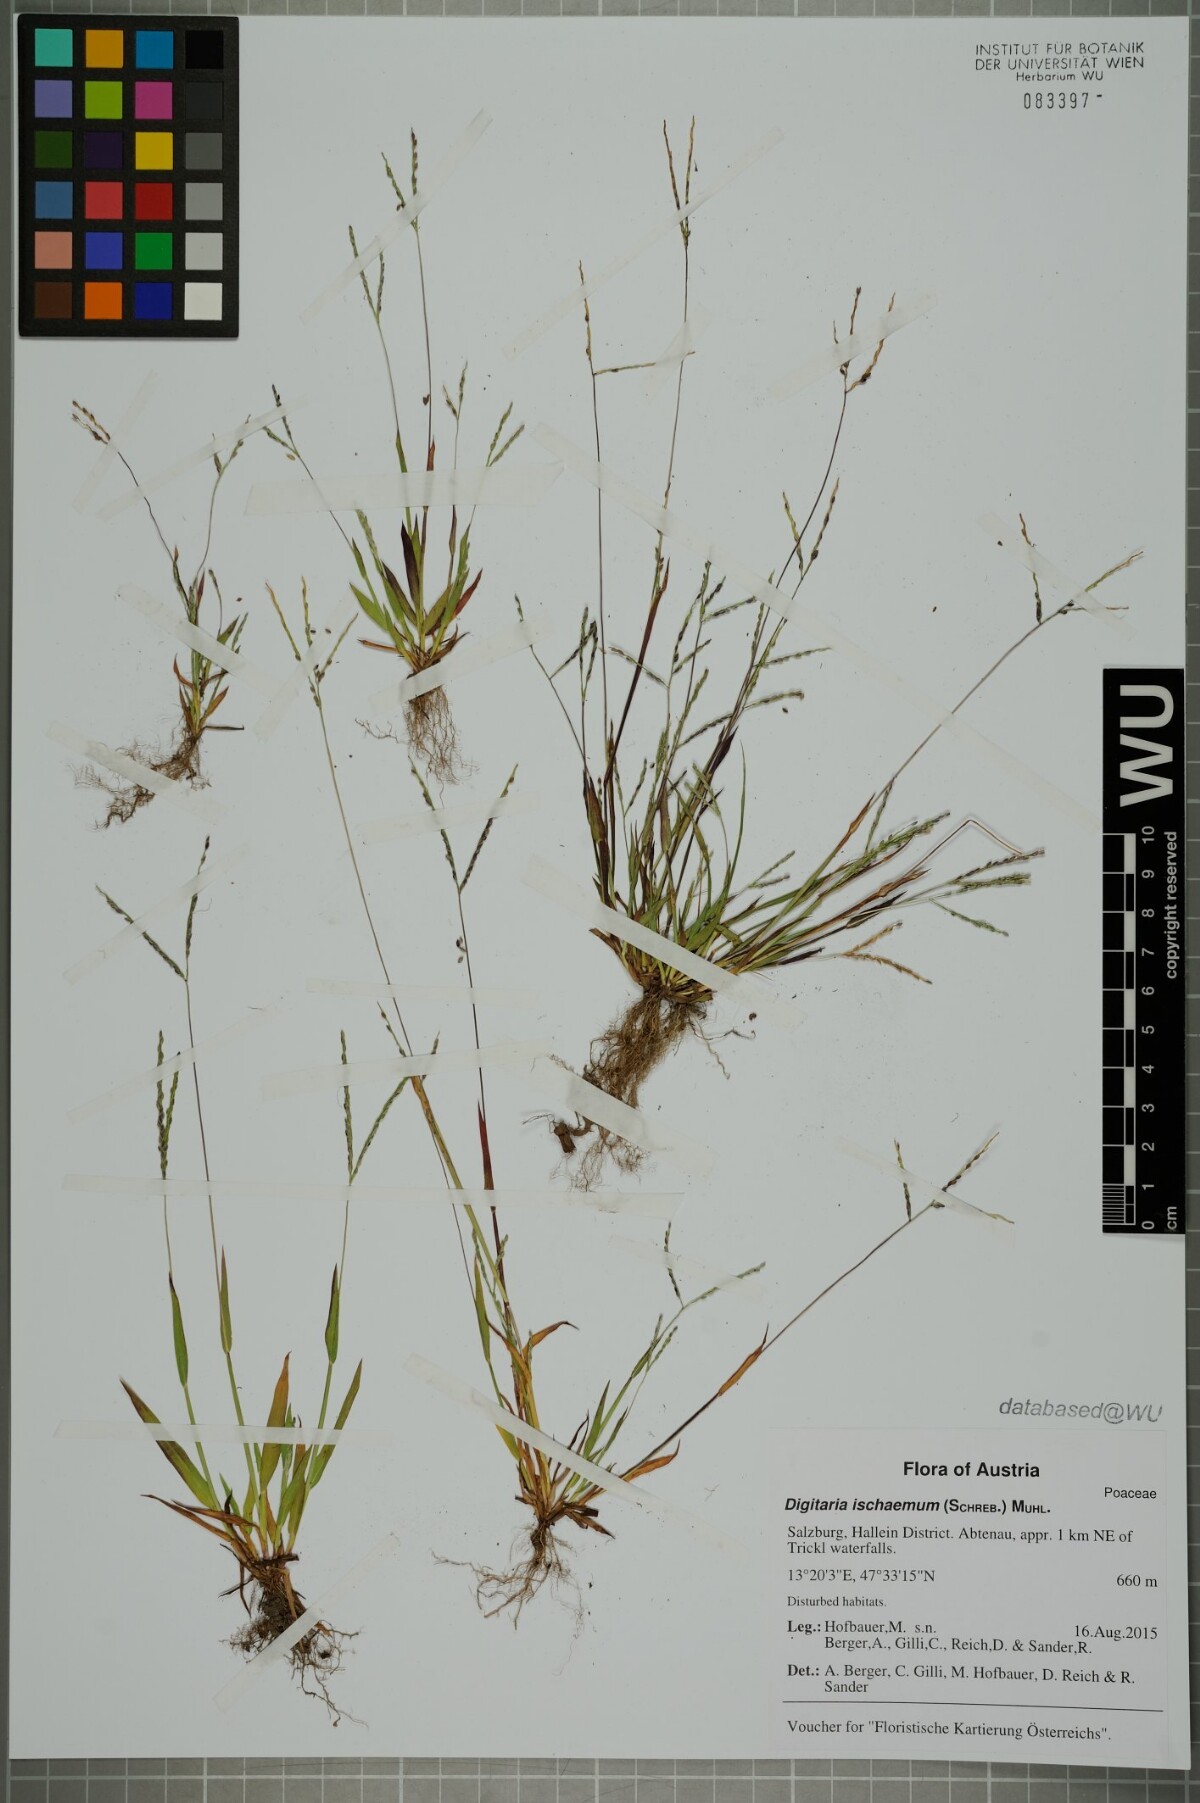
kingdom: Plantae
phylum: Tracheophyta
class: Liliopsida
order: Poales
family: Poaceae
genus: Digitaria
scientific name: Digitaria ischaemum
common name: Smooth crabgrass
